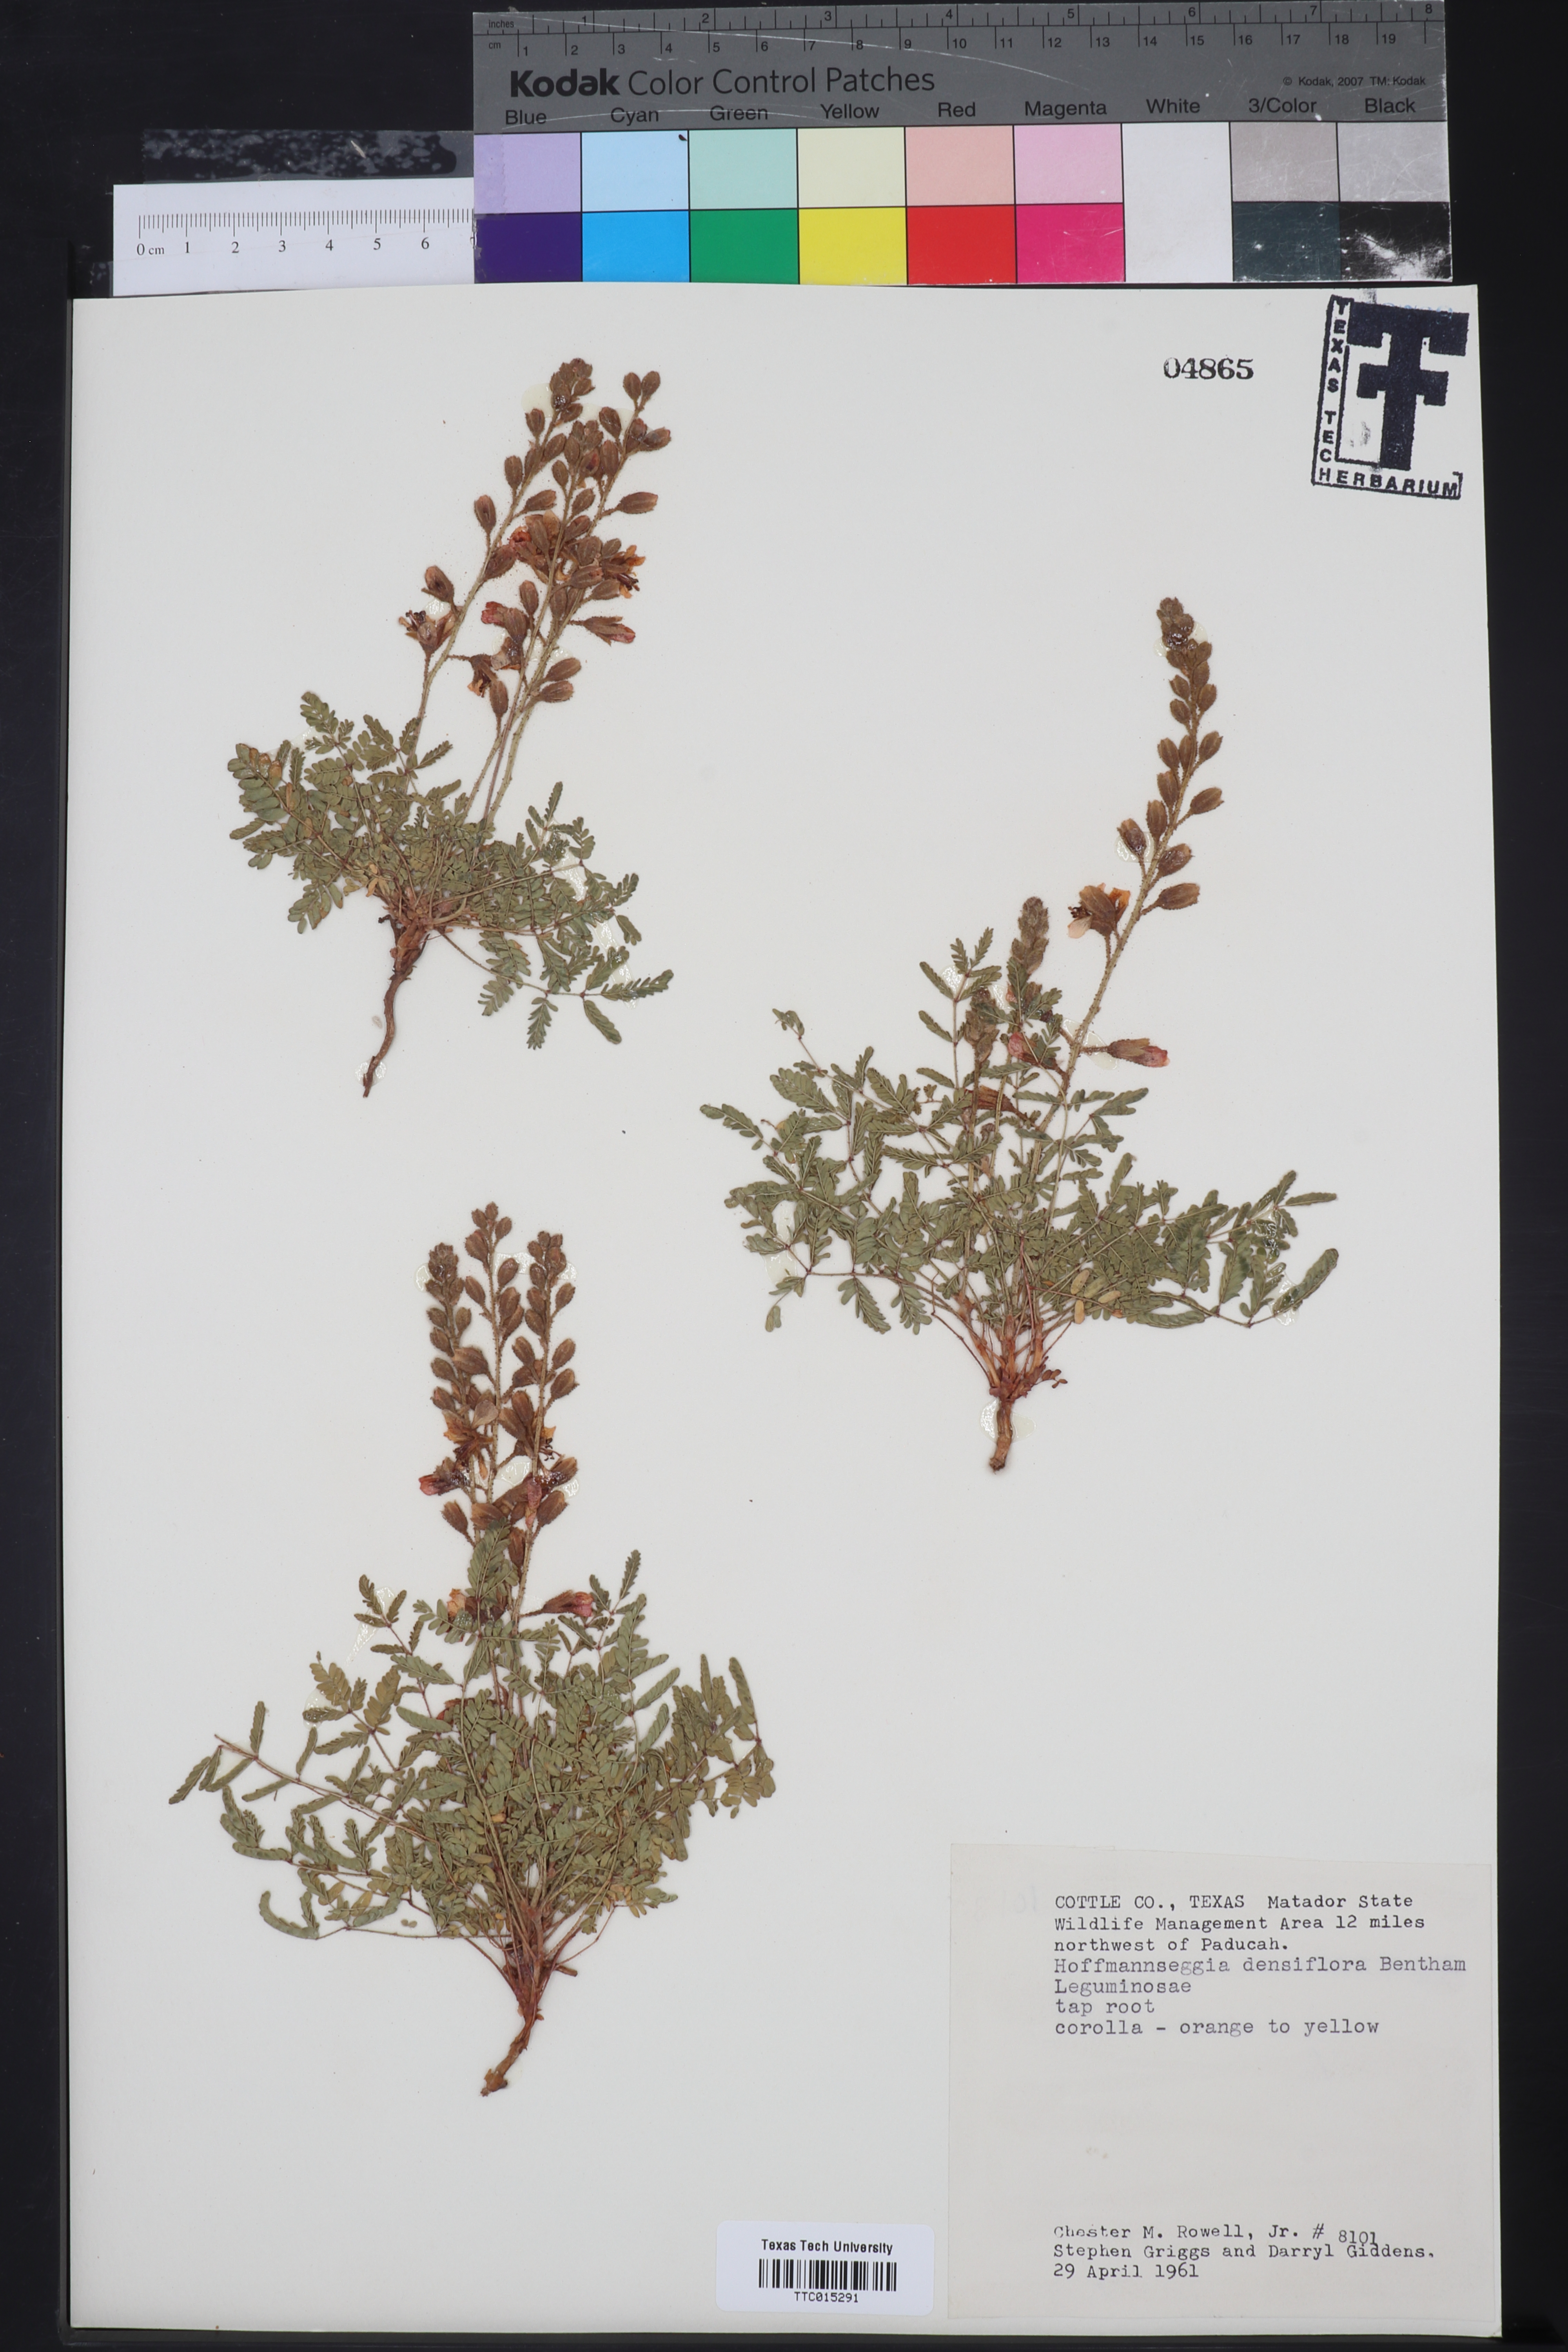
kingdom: Plantae
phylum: Tracheophyta
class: Magnoliopsida
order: Fabales
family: Fabaceae
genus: Hoffmannseggia
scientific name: Hoffmannseggia glauca
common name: Pignut
